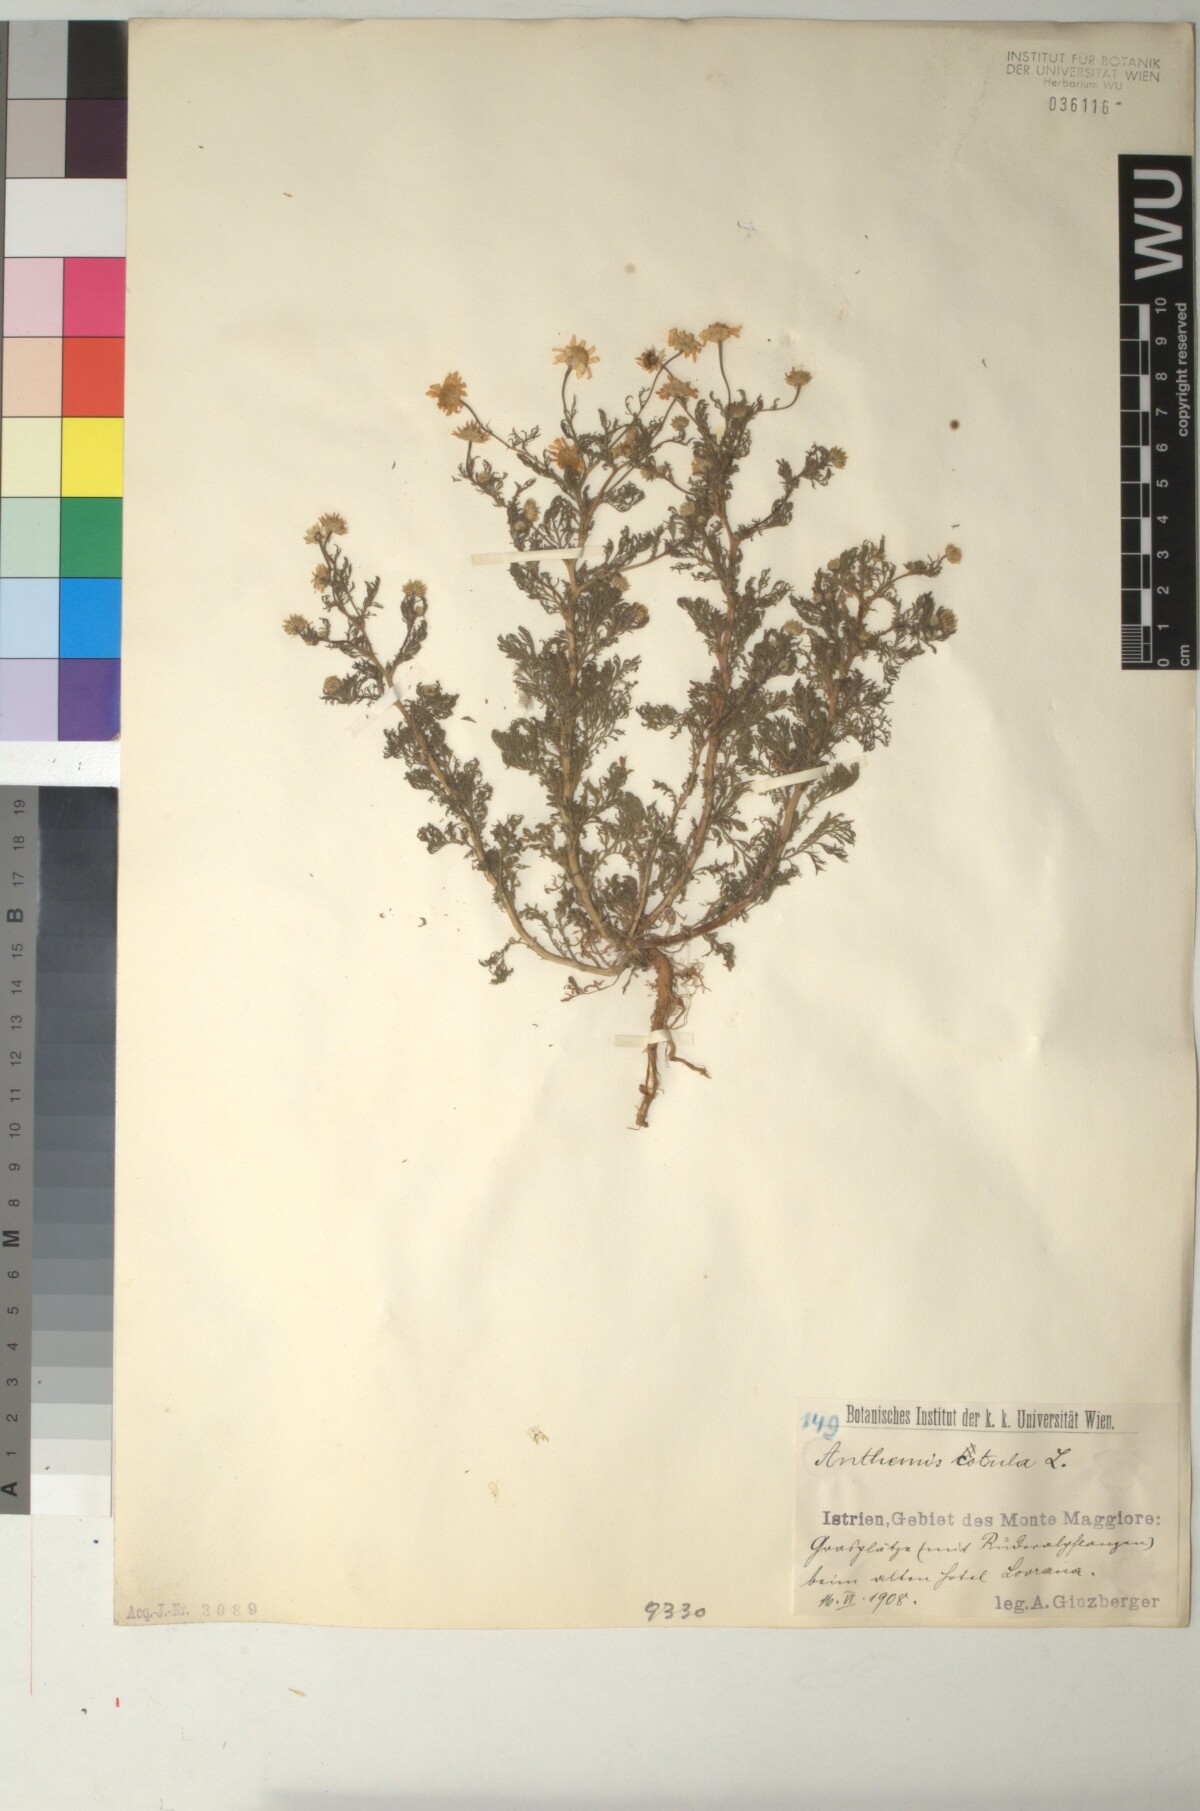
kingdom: Plantae
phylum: Tracheophyta
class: Magnoliopsida
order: Asterales
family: Asteraceae
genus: Anthemis
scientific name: Anthemis cotula
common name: Stinking chamomile
